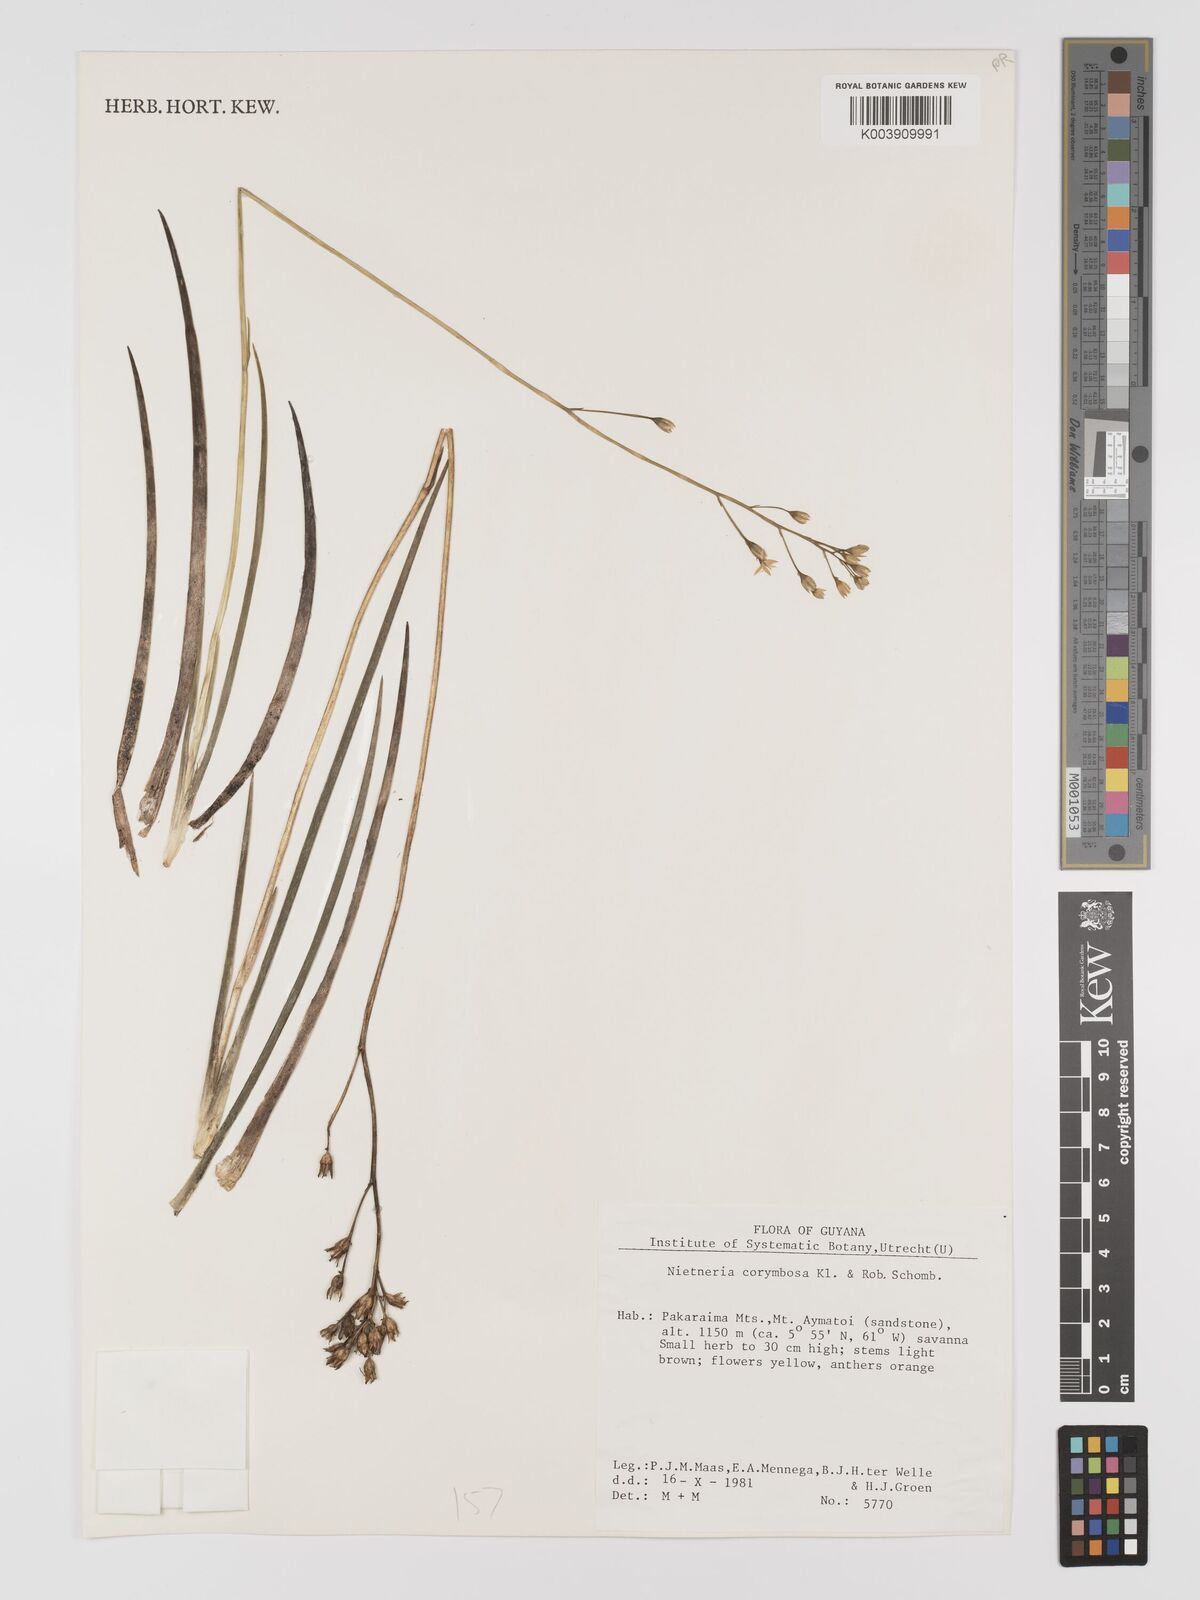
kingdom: Plantae
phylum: Tracheophyta
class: Liliopsida
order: Dioscoreales
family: Nartheciaceae
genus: Nietneria
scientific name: Nietneria corymbosa
